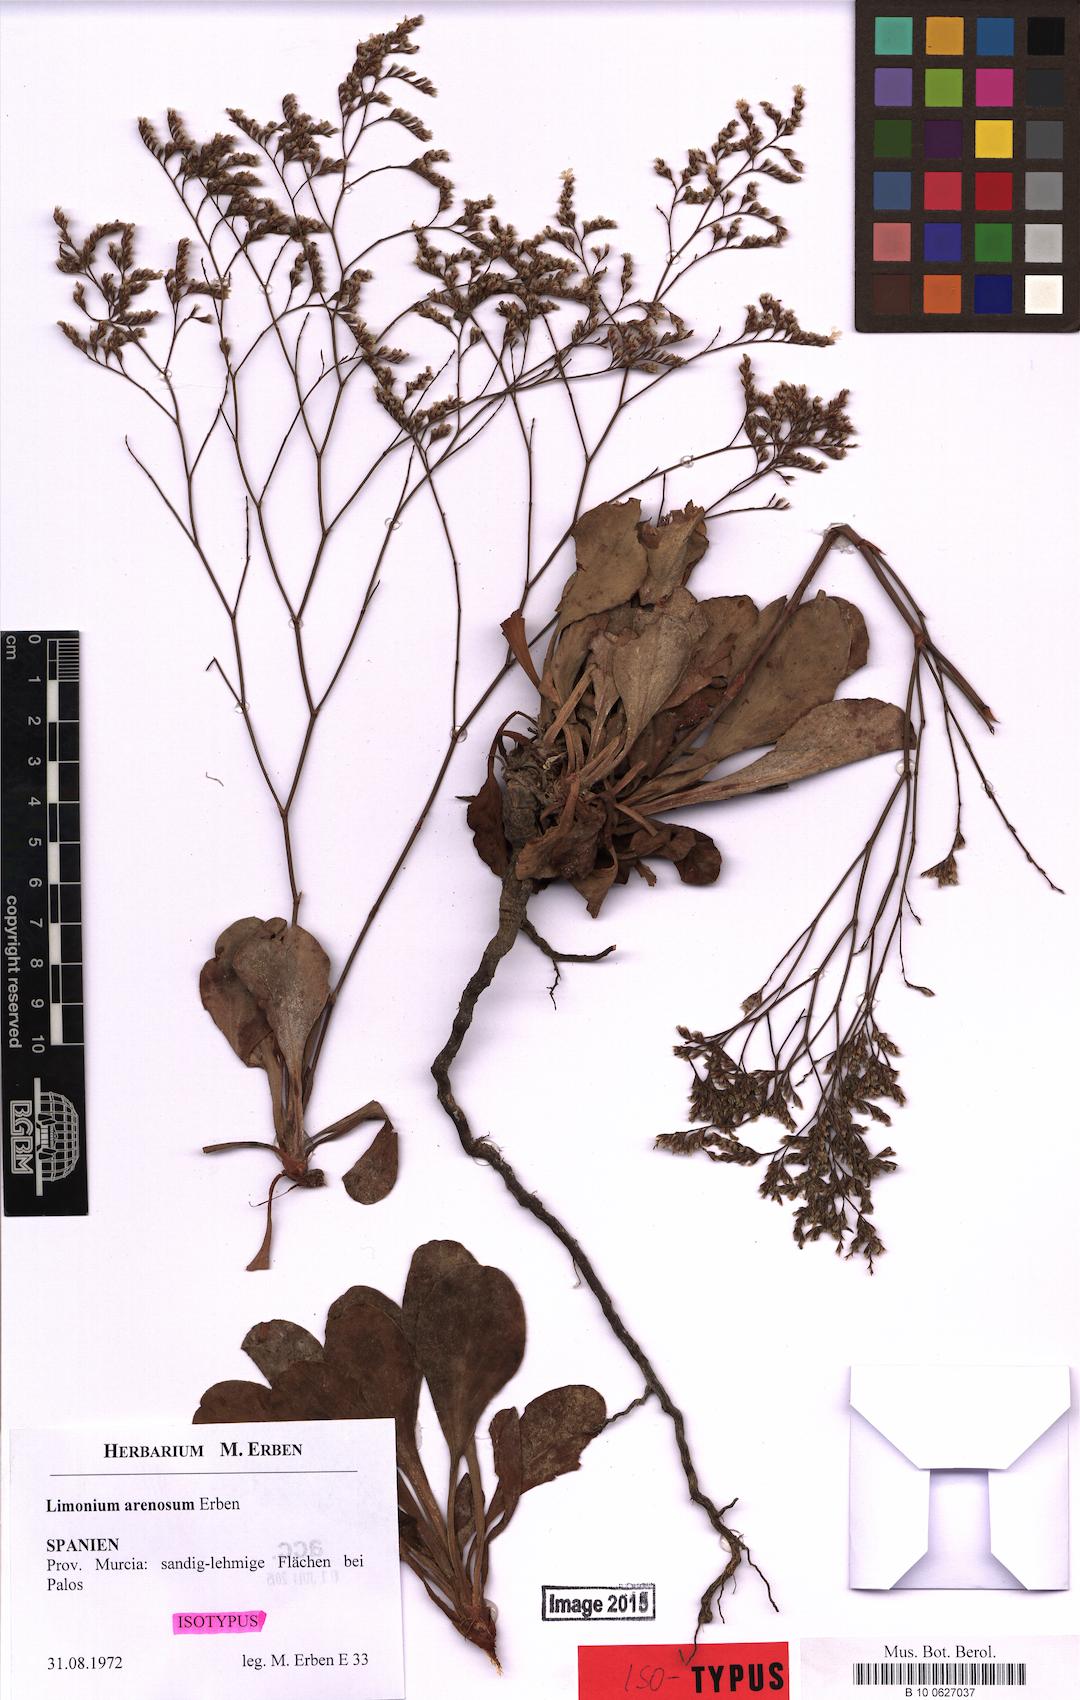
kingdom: Plantae
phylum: Tracheophyta
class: Magnoliopsida
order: Caryophyllales
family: Plumbaginaceae
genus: Limonium
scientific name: Limonium arenosum
